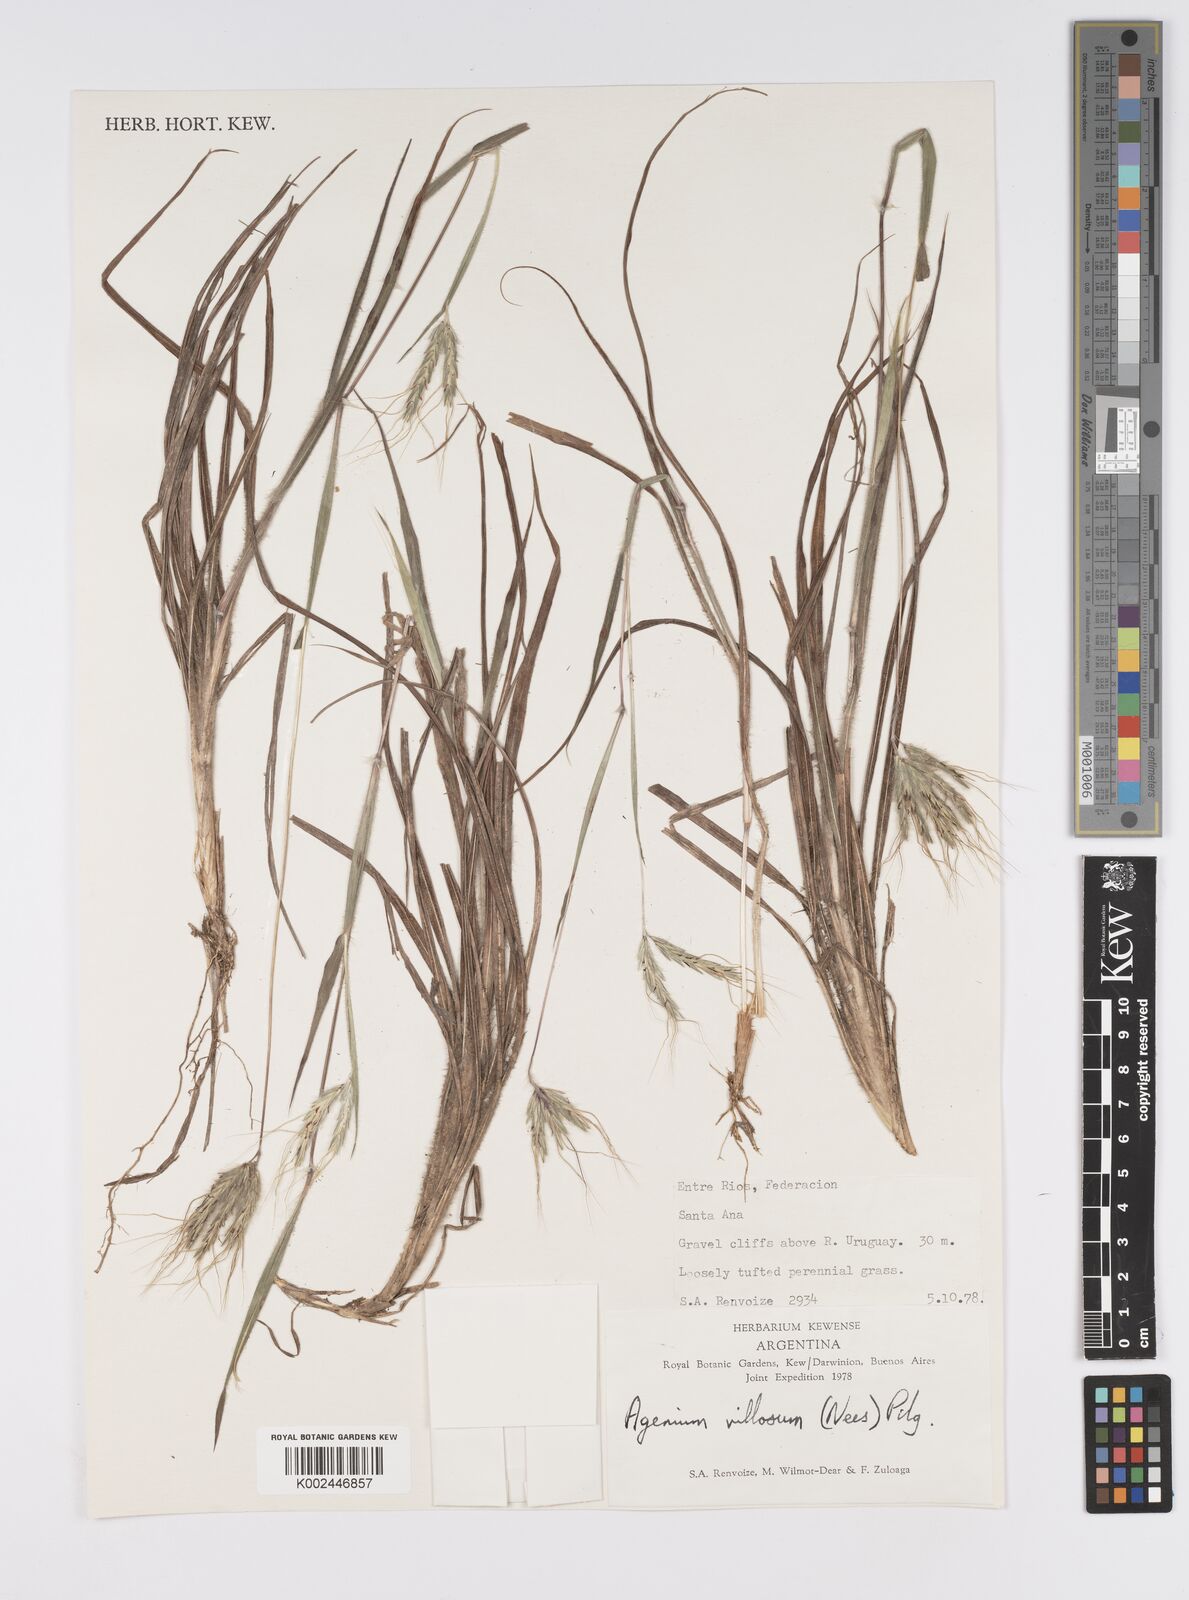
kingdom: Plantae
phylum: Tracheophyta
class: Liliopsida
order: Poales
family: Poaceae
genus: Agenium
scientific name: Agenium villosum
